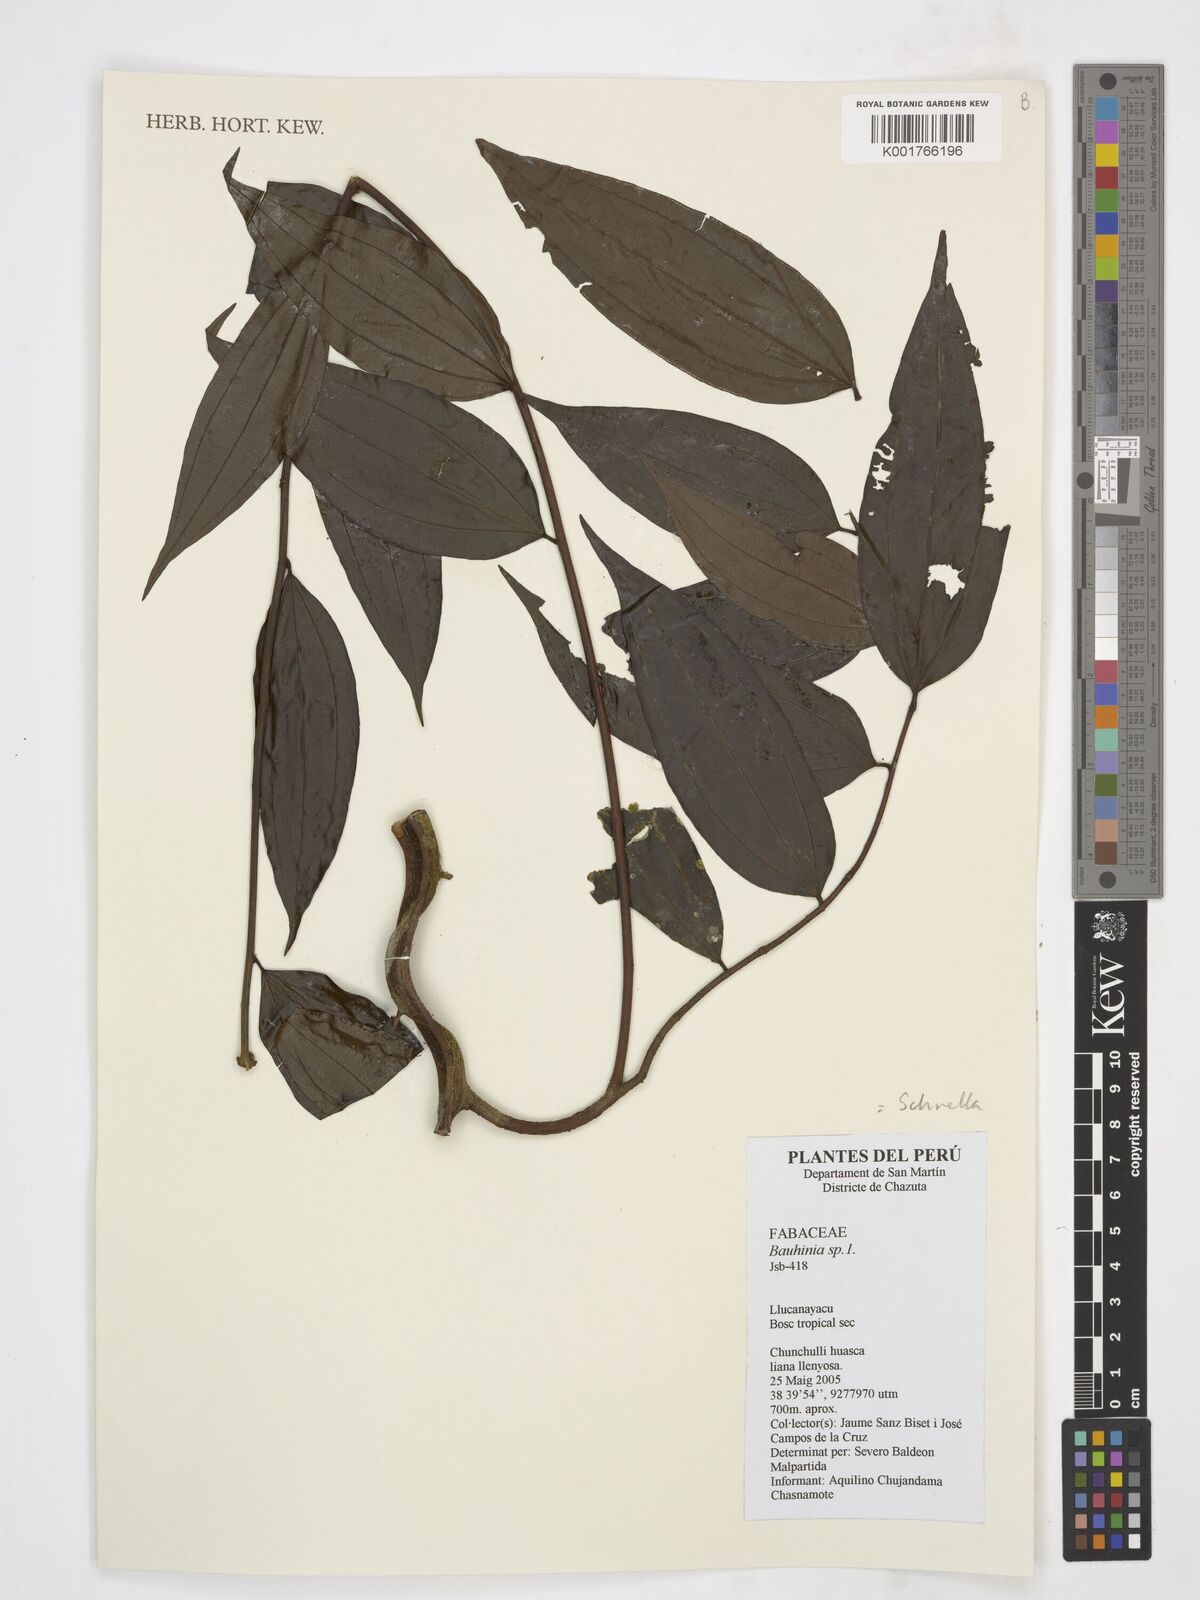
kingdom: Plantae
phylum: Tracheophyta
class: Magnoliopsida
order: Fabales
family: Fabaceae
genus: Schnella
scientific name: Schnella
